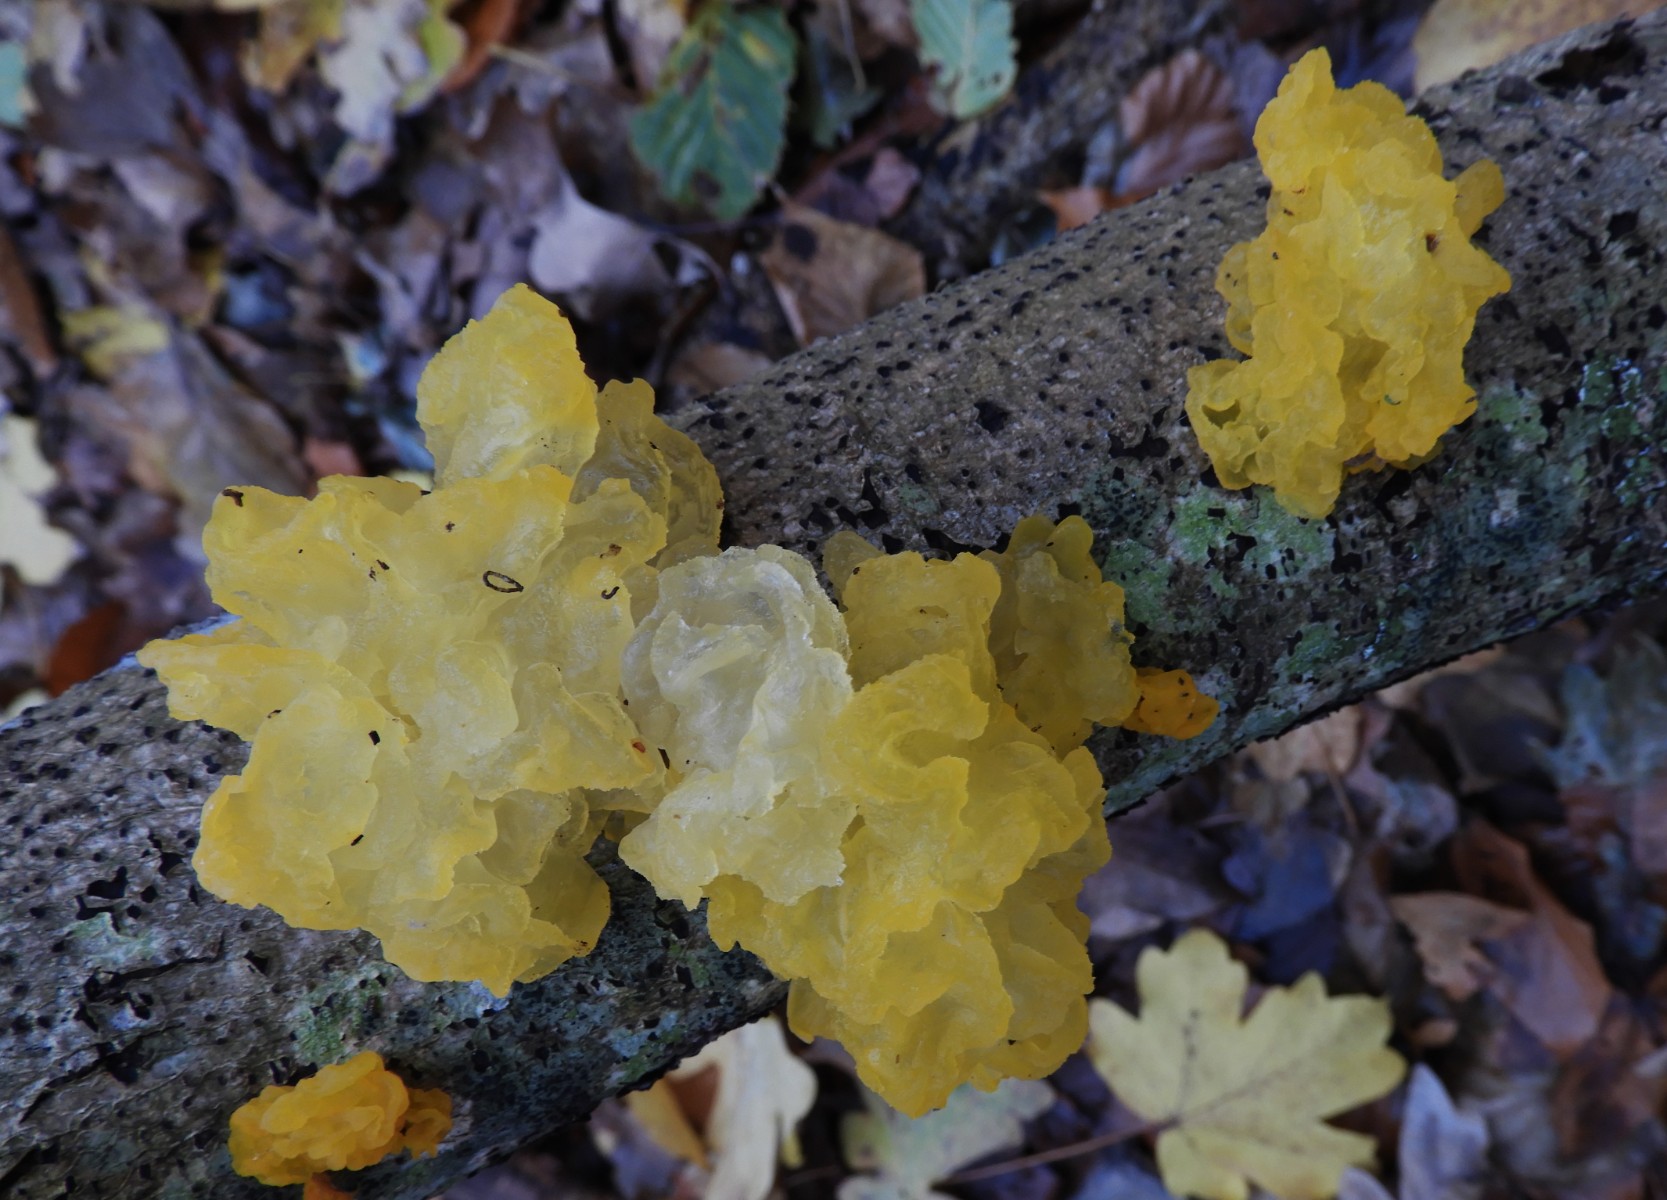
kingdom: Fungi
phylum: Basidiomycota
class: Tremellomycetes
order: Tremellales
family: Tremellaceae
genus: Tremella
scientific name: Tremella mesenterica
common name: gul bævresvamp
